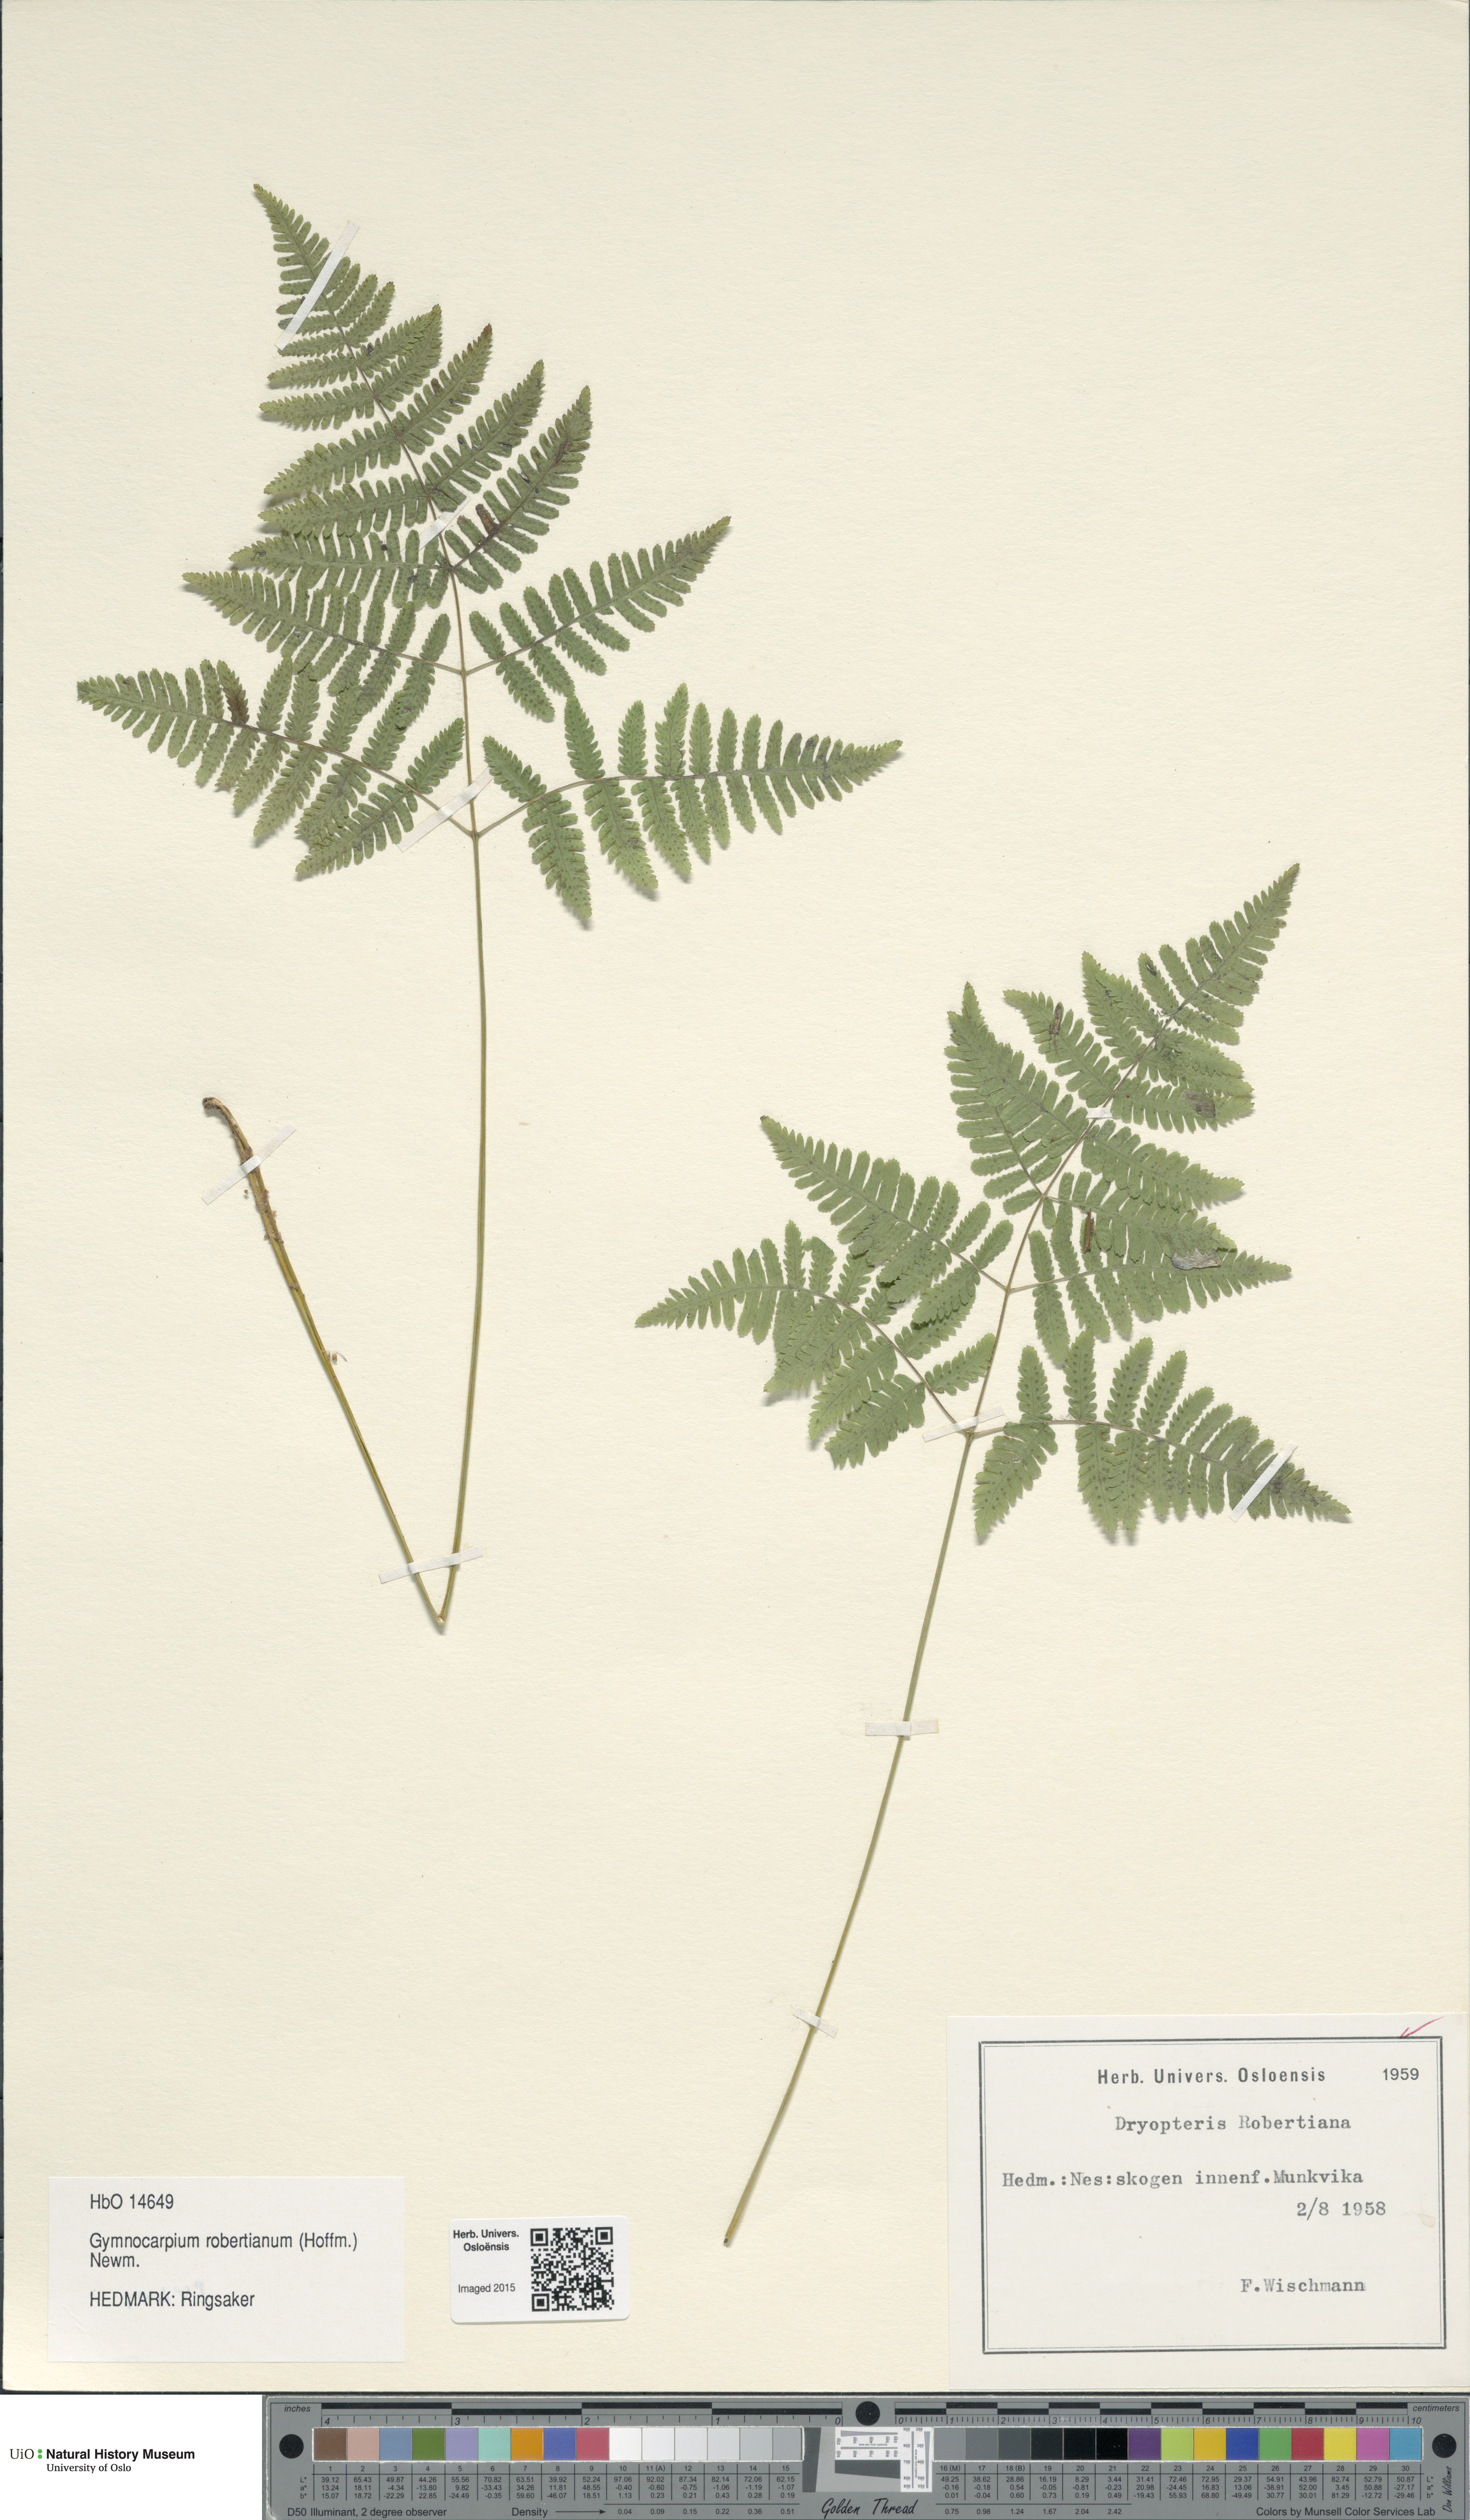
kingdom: Plantae
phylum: Tracheophyta
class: Polypodiopsida
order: Polypodiales
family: Cystopteridaceae
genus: Gymnocarpium
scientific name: Gymnocarpium robertianum
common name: Limestone fern
